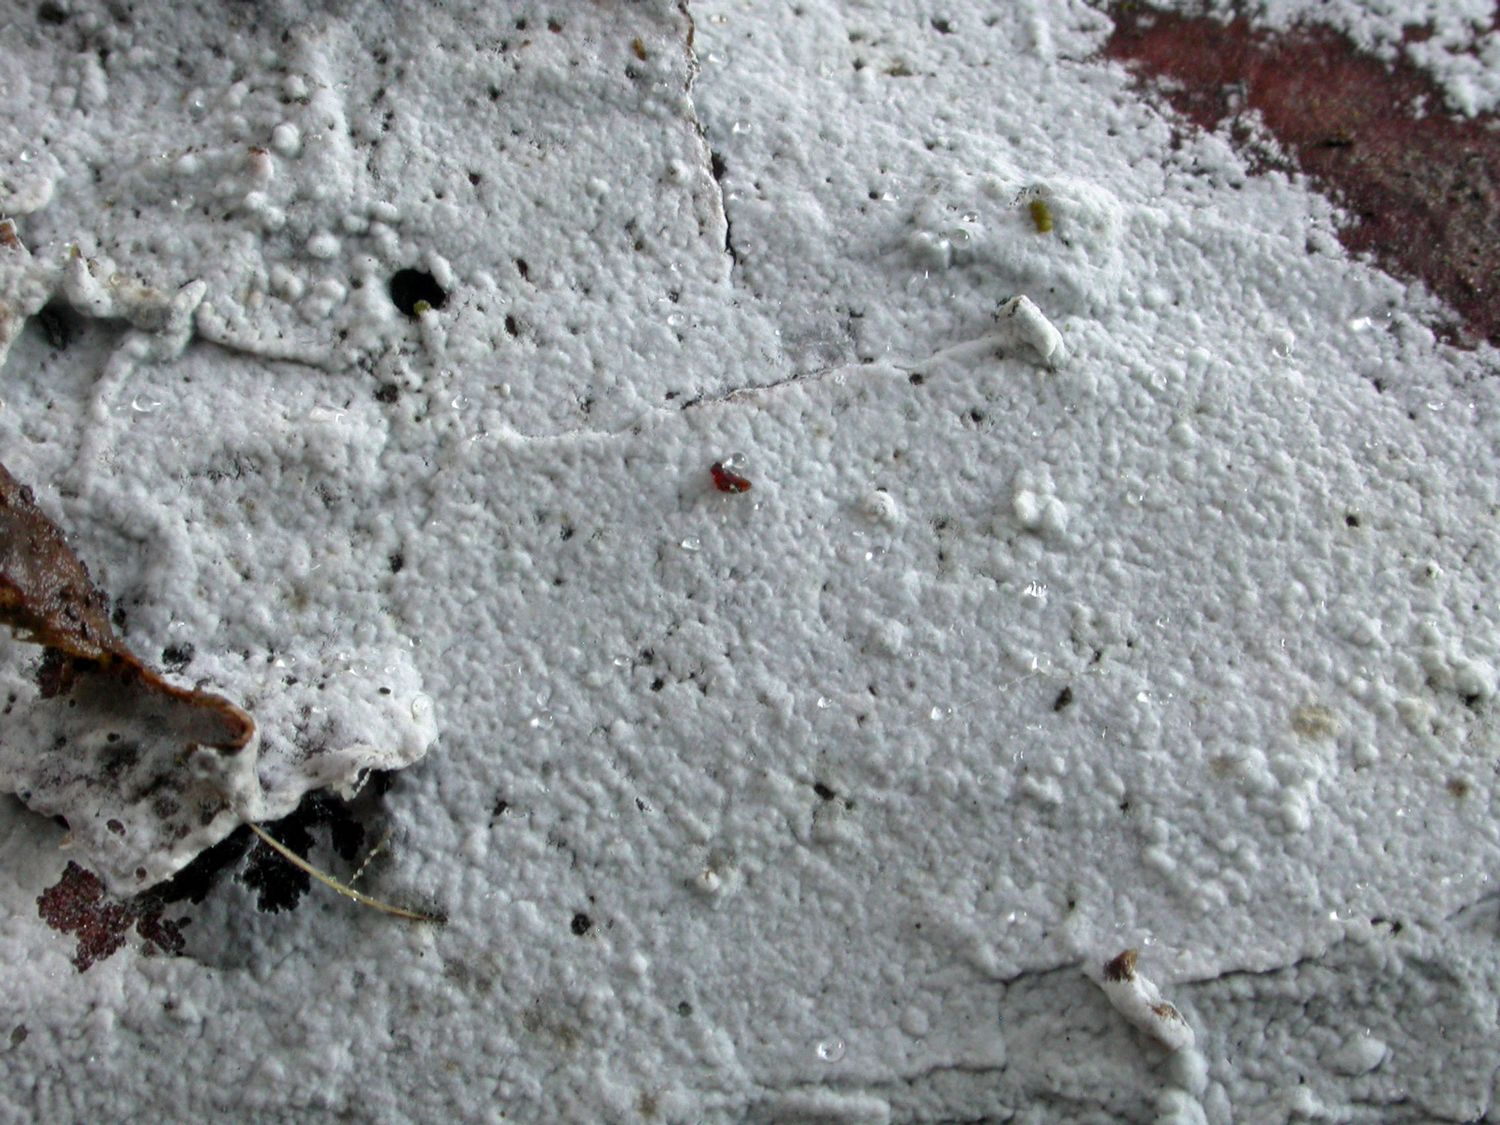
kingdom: Fungi
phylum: Basidiomycota
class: Agaricomycetes
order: Atheliales
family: Atheliaceae
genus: Athelia
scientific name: Athelia epiphylla
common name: almindelig barkhinde
